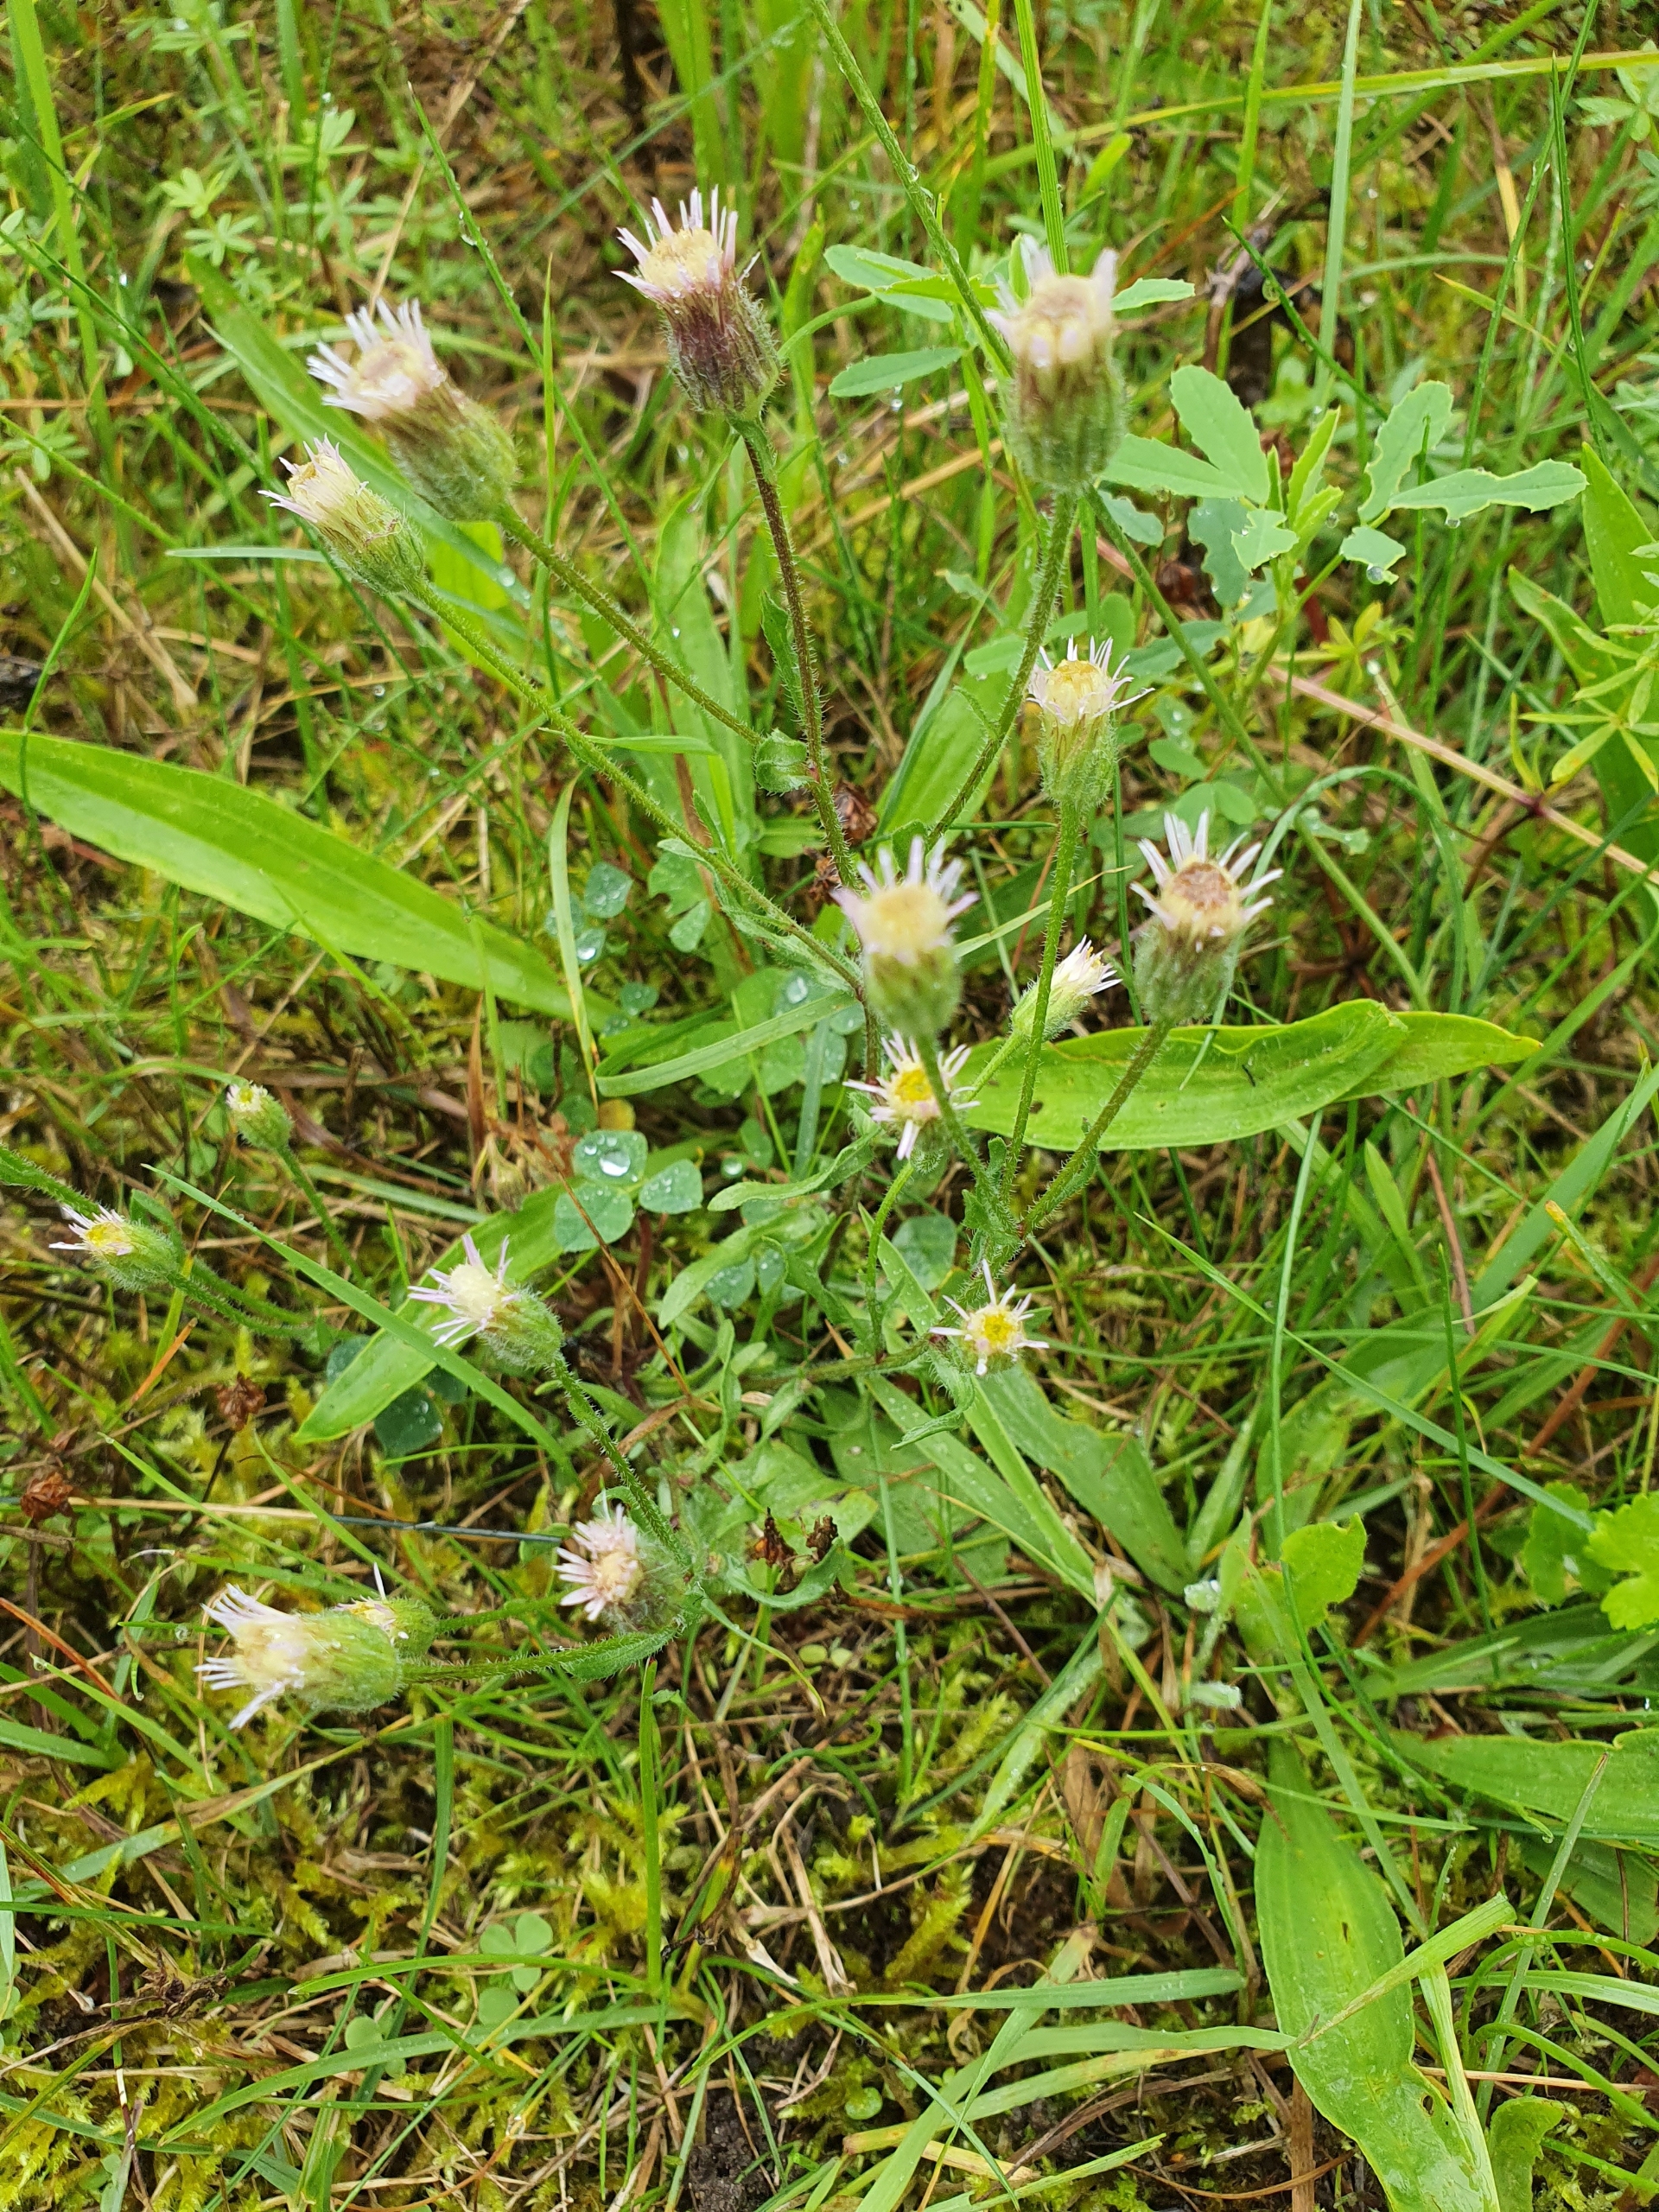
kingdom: Plantae
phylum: Tracheophyta
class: Magnoliopsida
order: Asterales
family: Asteraceae
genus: Erigeron
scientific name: Erigeron acris
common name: Bitter bakkestjerne
